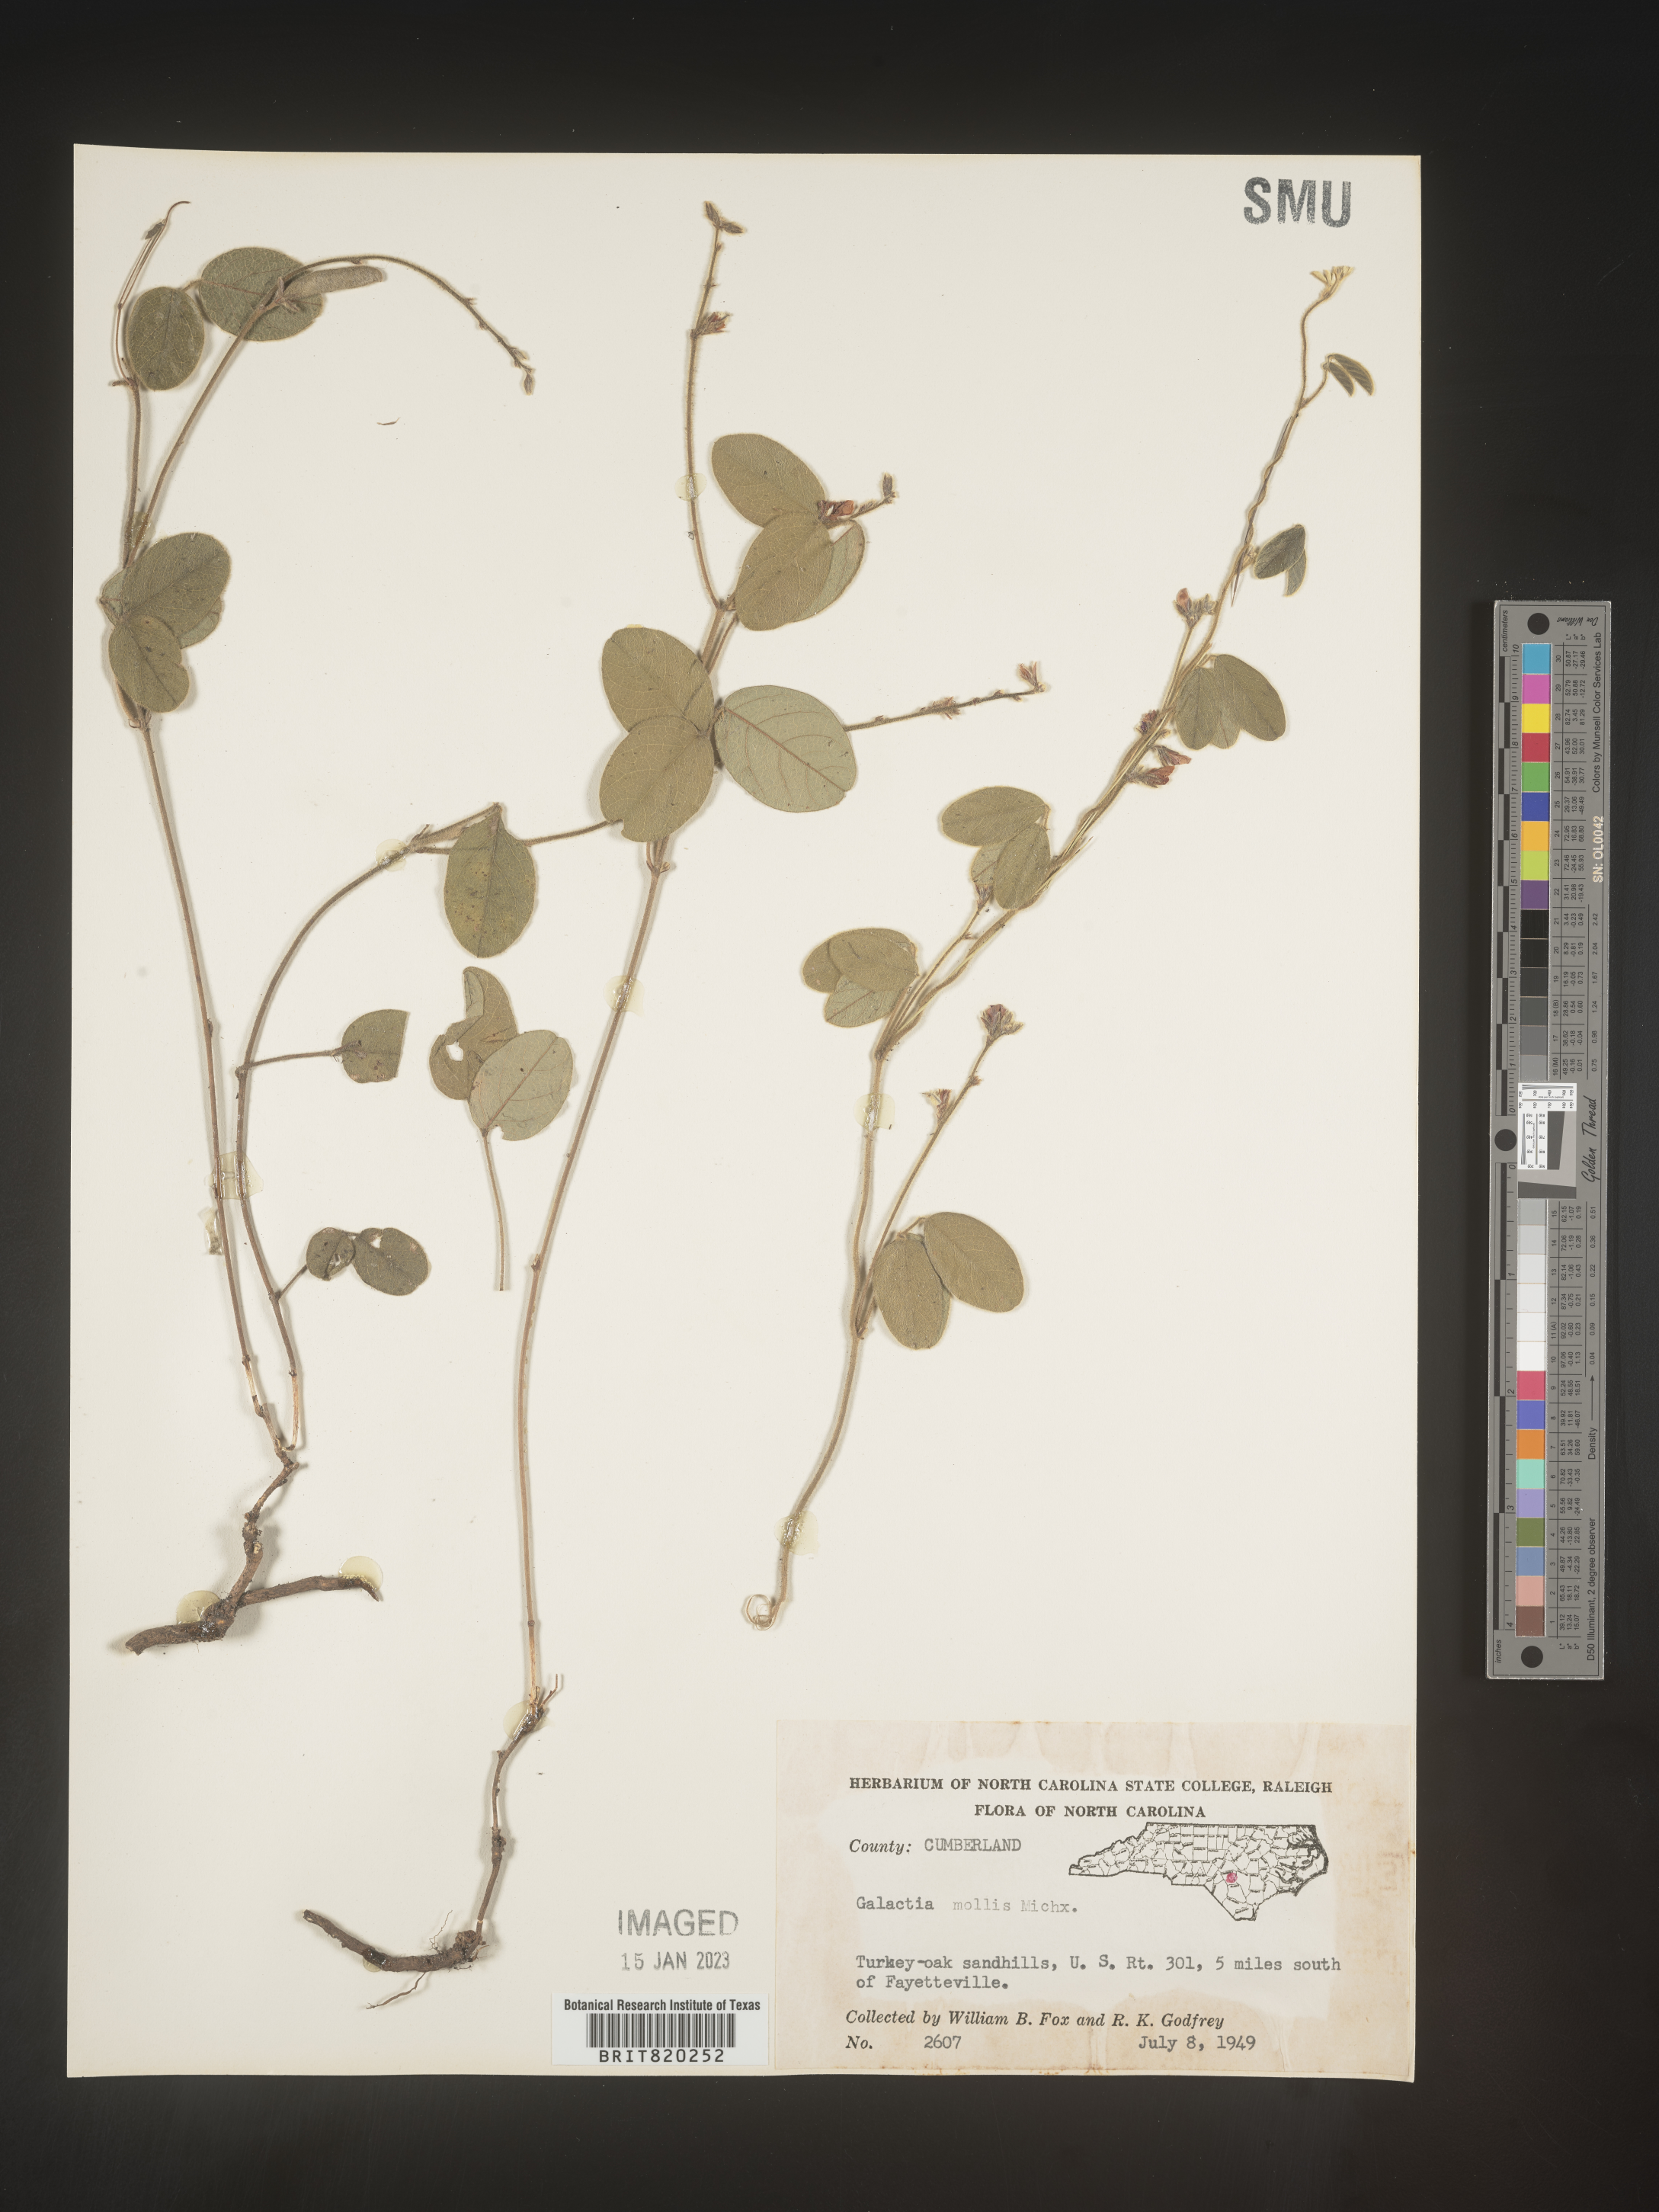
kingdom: Plantae
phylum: Tracheophyta
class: Magnoliopsida
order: Fabales
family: Fabaceae
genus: Galactia
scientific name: Galactia mollis
